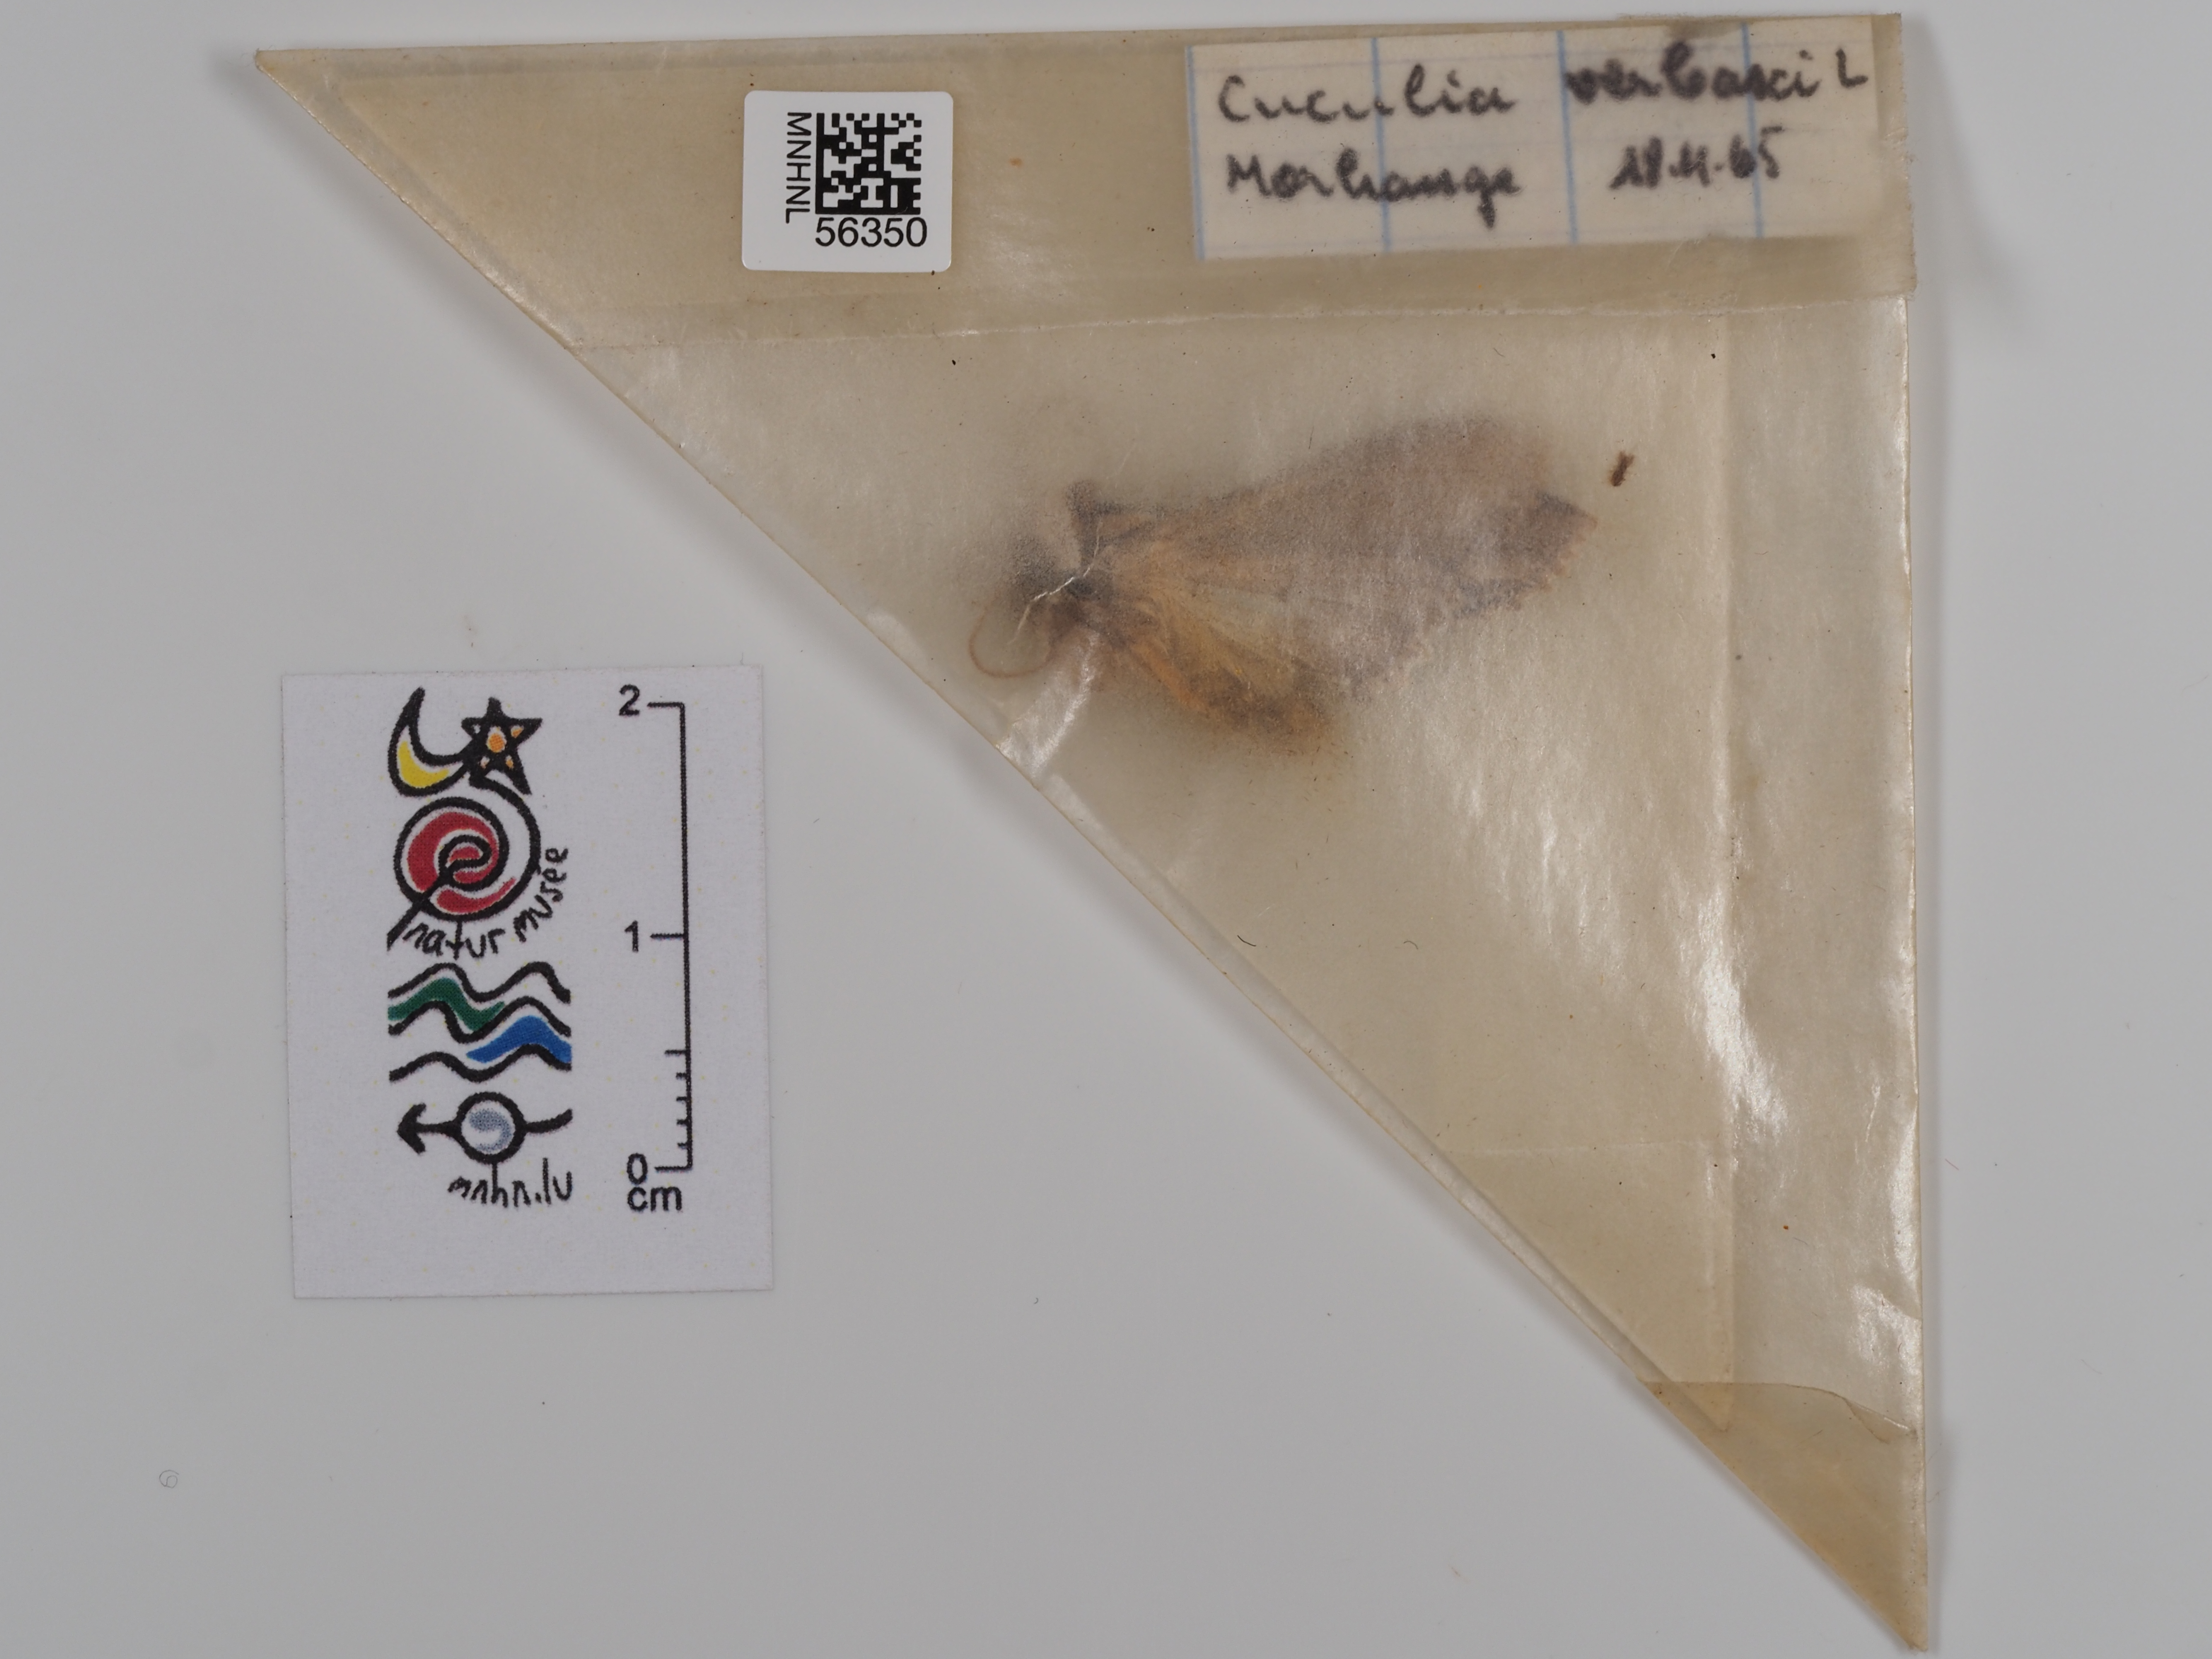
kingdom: Animalia
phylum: Arthropoda
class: Insecta
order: Lepidoptera
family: Noctuidae
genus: Cucullia
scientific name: Cucullia verbasci
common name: Mullein
